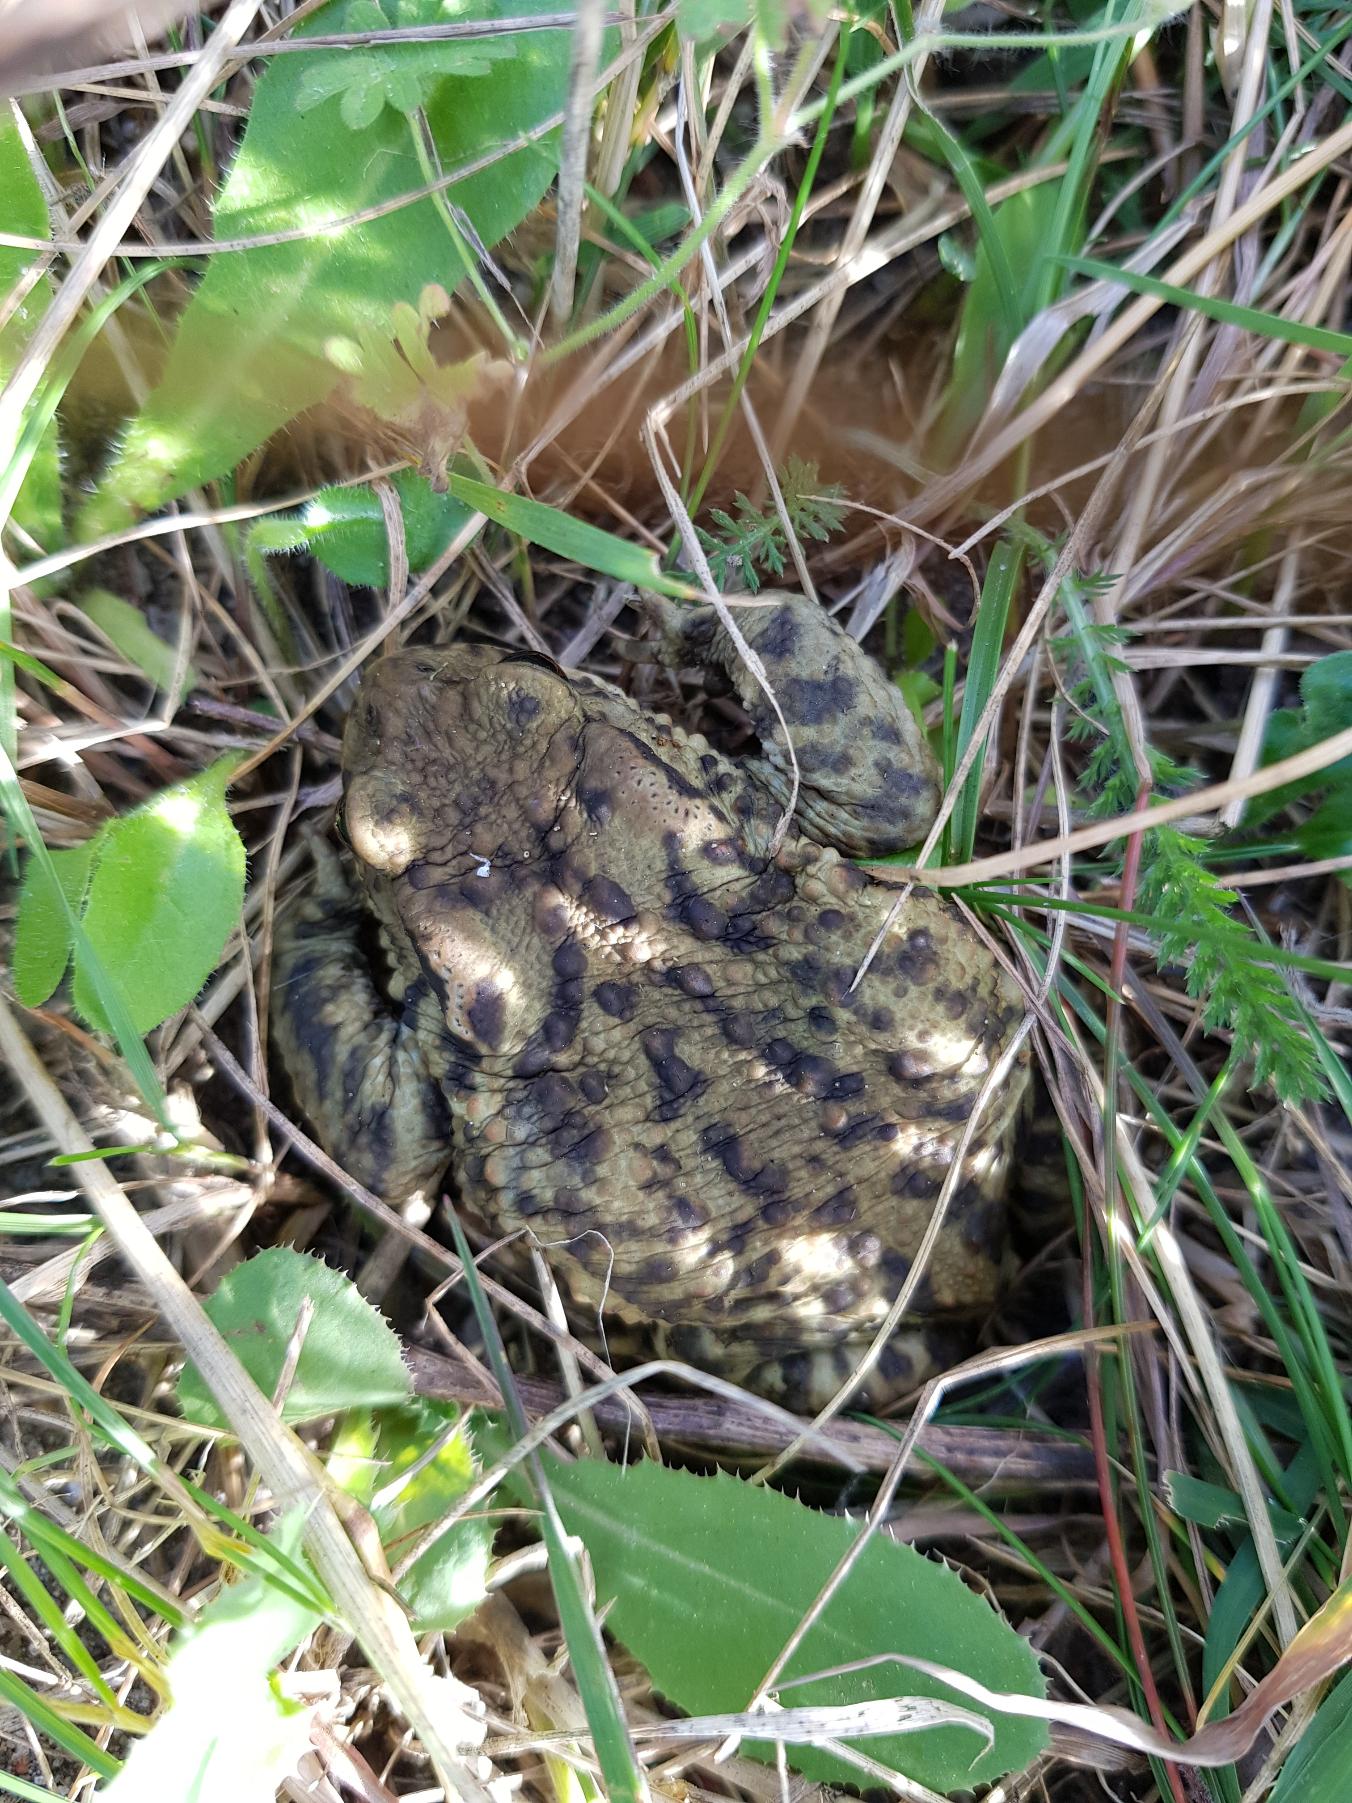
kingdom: Animalia
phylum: Chordata
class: Amphibia
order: Anura
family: Bufonidae
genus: Bufo
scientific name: Bufo bufo
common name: Skrubtudse
